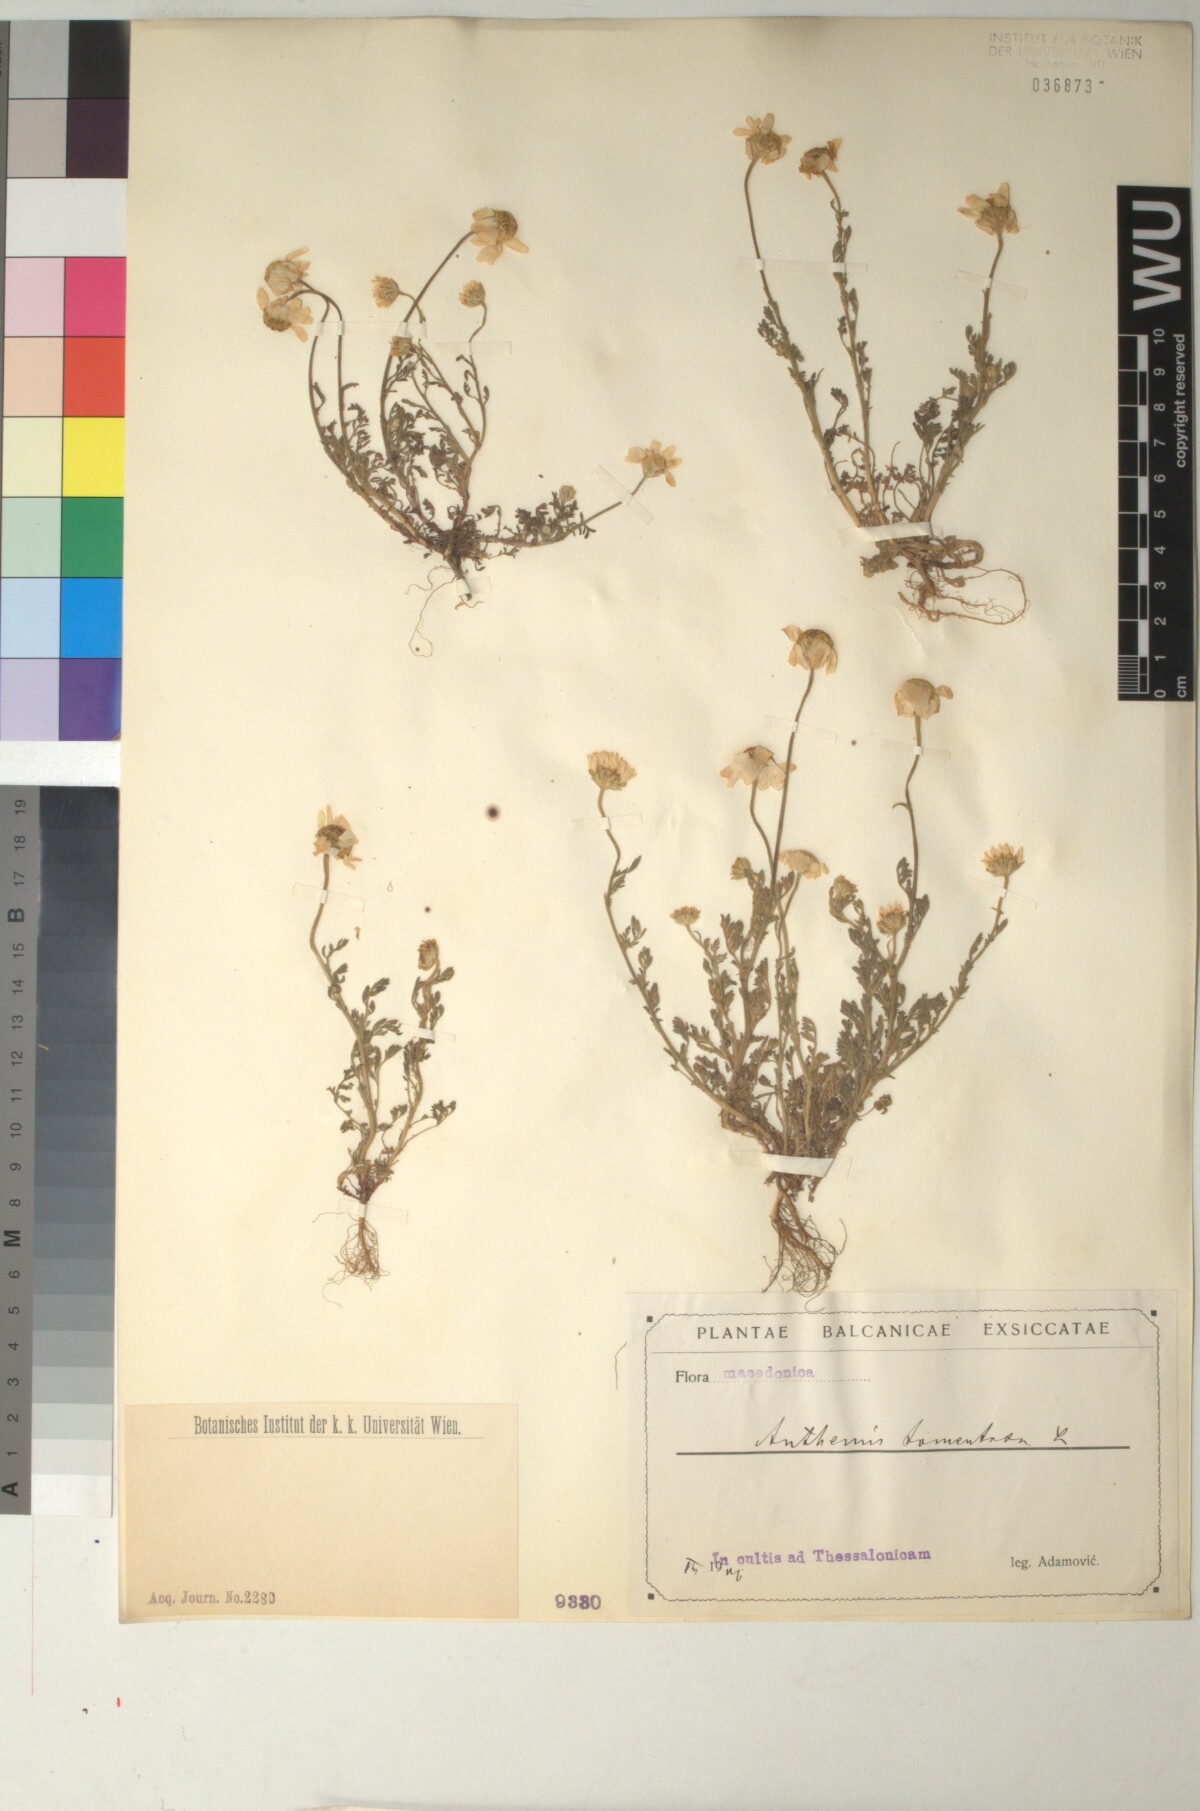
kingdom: Plantae
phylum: Tracheophyta
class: Magnoliopsida
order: Asterales
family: Asteraceae
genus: Anthemis
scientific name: Anthemis tomentosa
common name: Woolly chamomile
